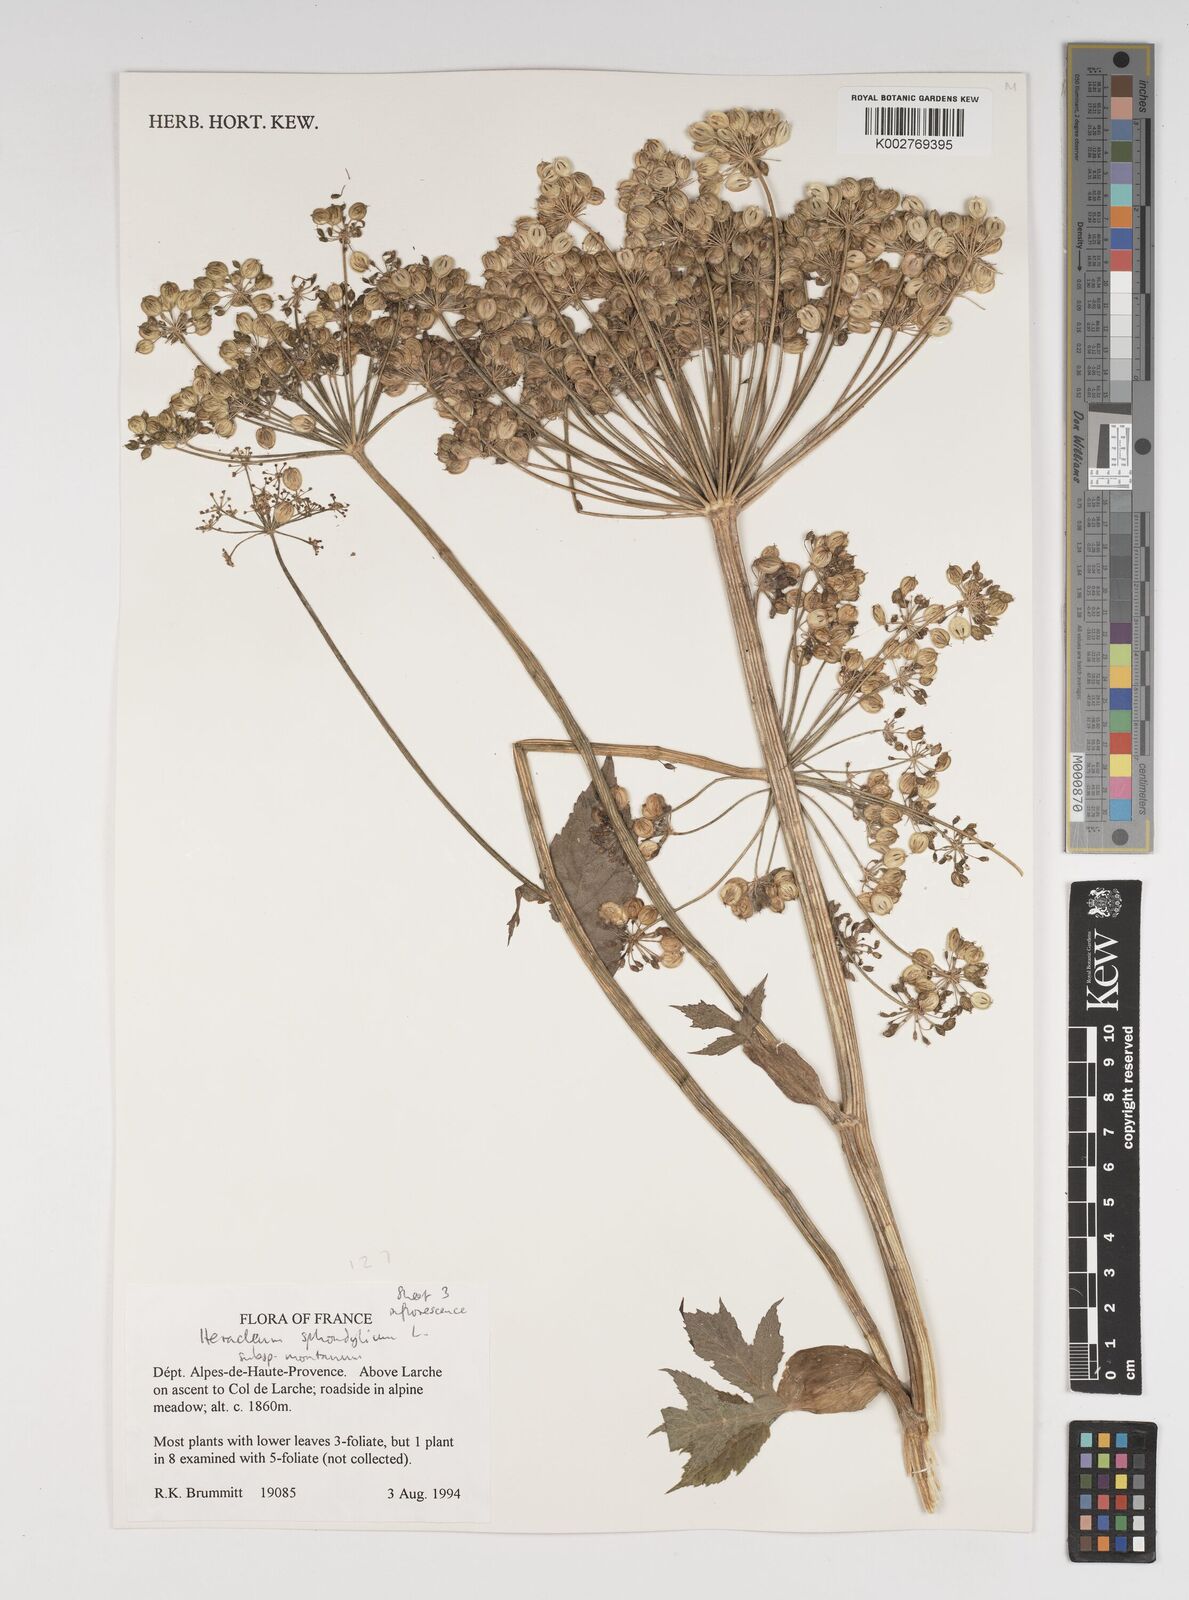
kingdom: Plantae
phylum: Tracheophyta
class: Magnoliopsida
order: Apiales
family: Apiaceae
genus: Heracleum
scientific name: Heracleum sphondylium
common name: Hogweed
